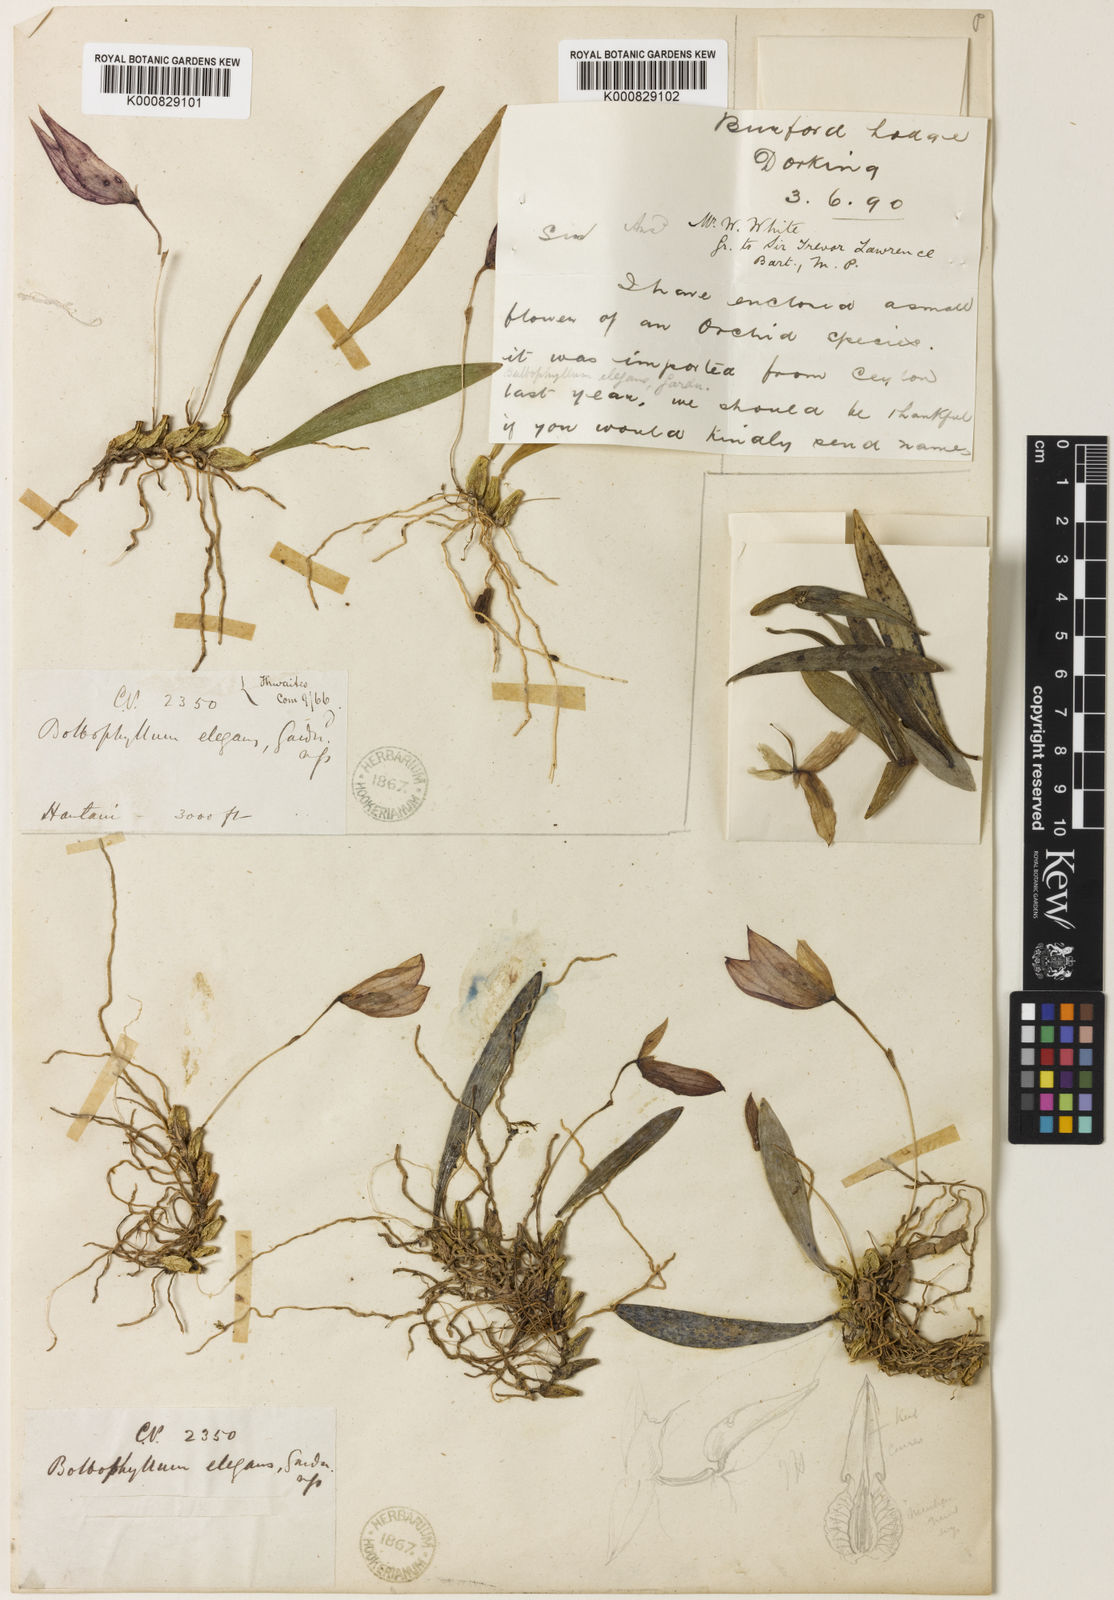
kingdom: Plantae
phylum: Tracheophyta
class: Liliopsida
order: Asparagales
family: Orchidaceae
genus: Bulbophyllum
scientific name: Bulbophyllum elegans
